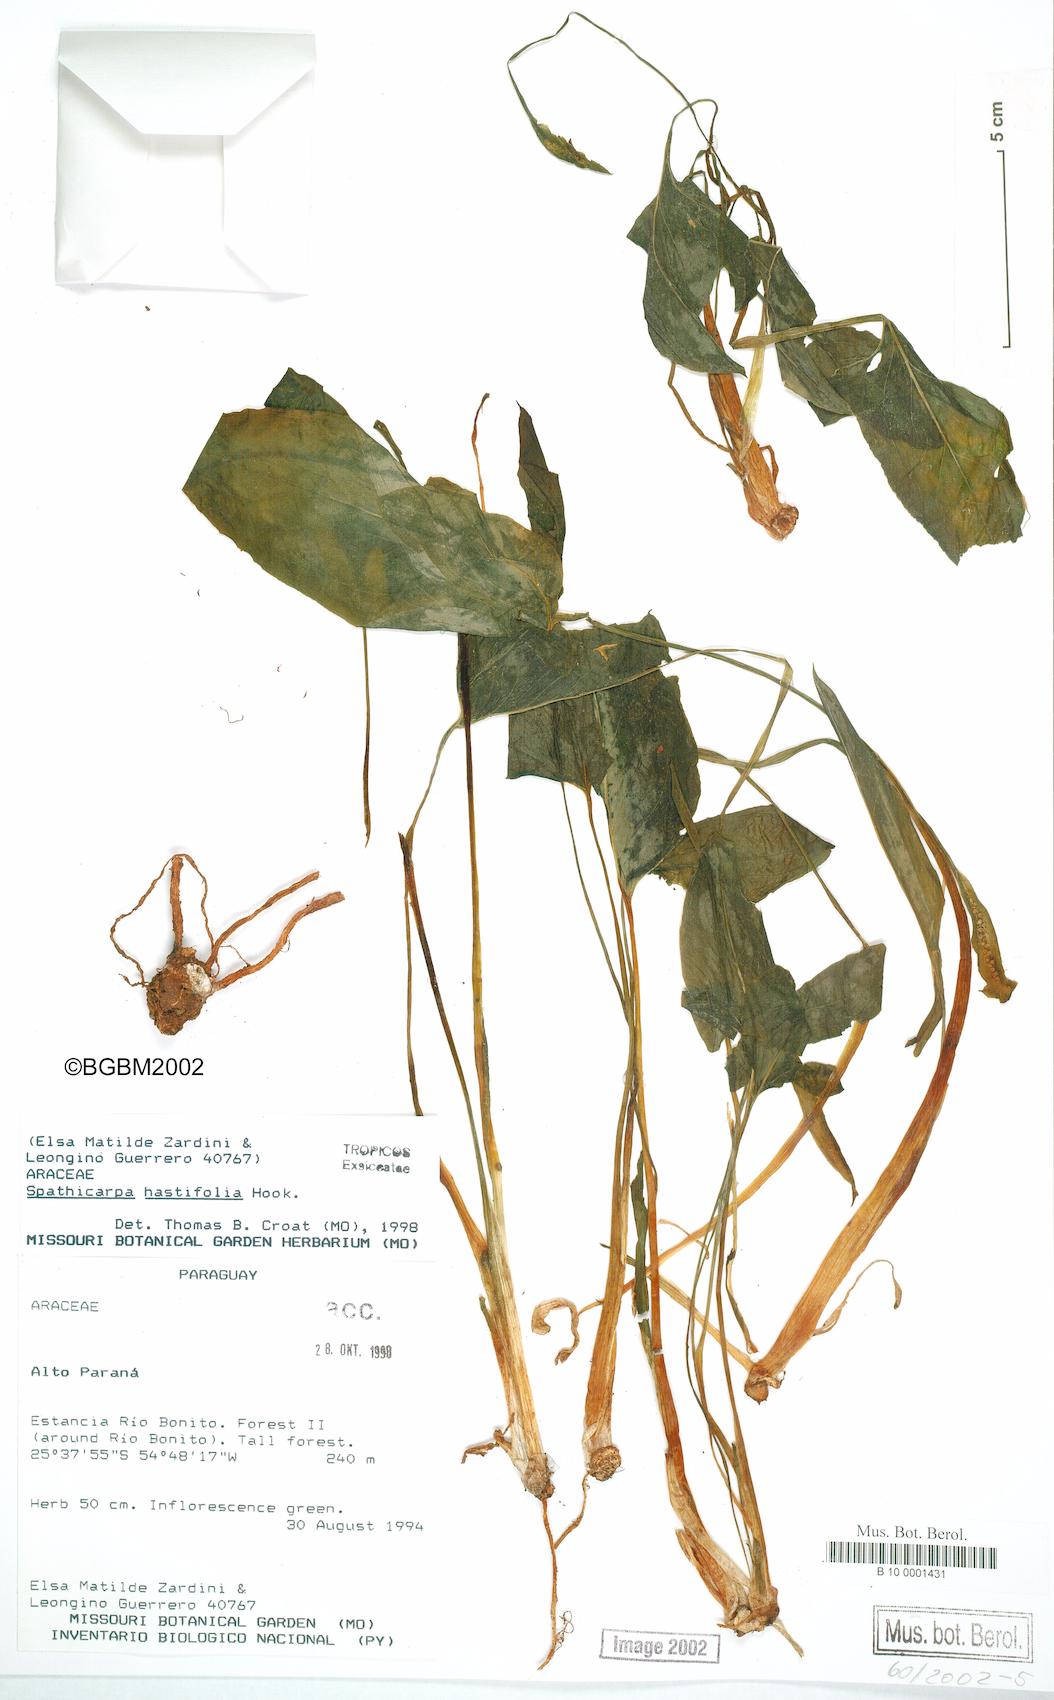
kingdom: Plantae
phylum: Tracheophyta
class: Liliopsida
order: Alismatales
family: Araceae
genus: Spathicarpa
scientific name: Spathicarpa hastifolia
